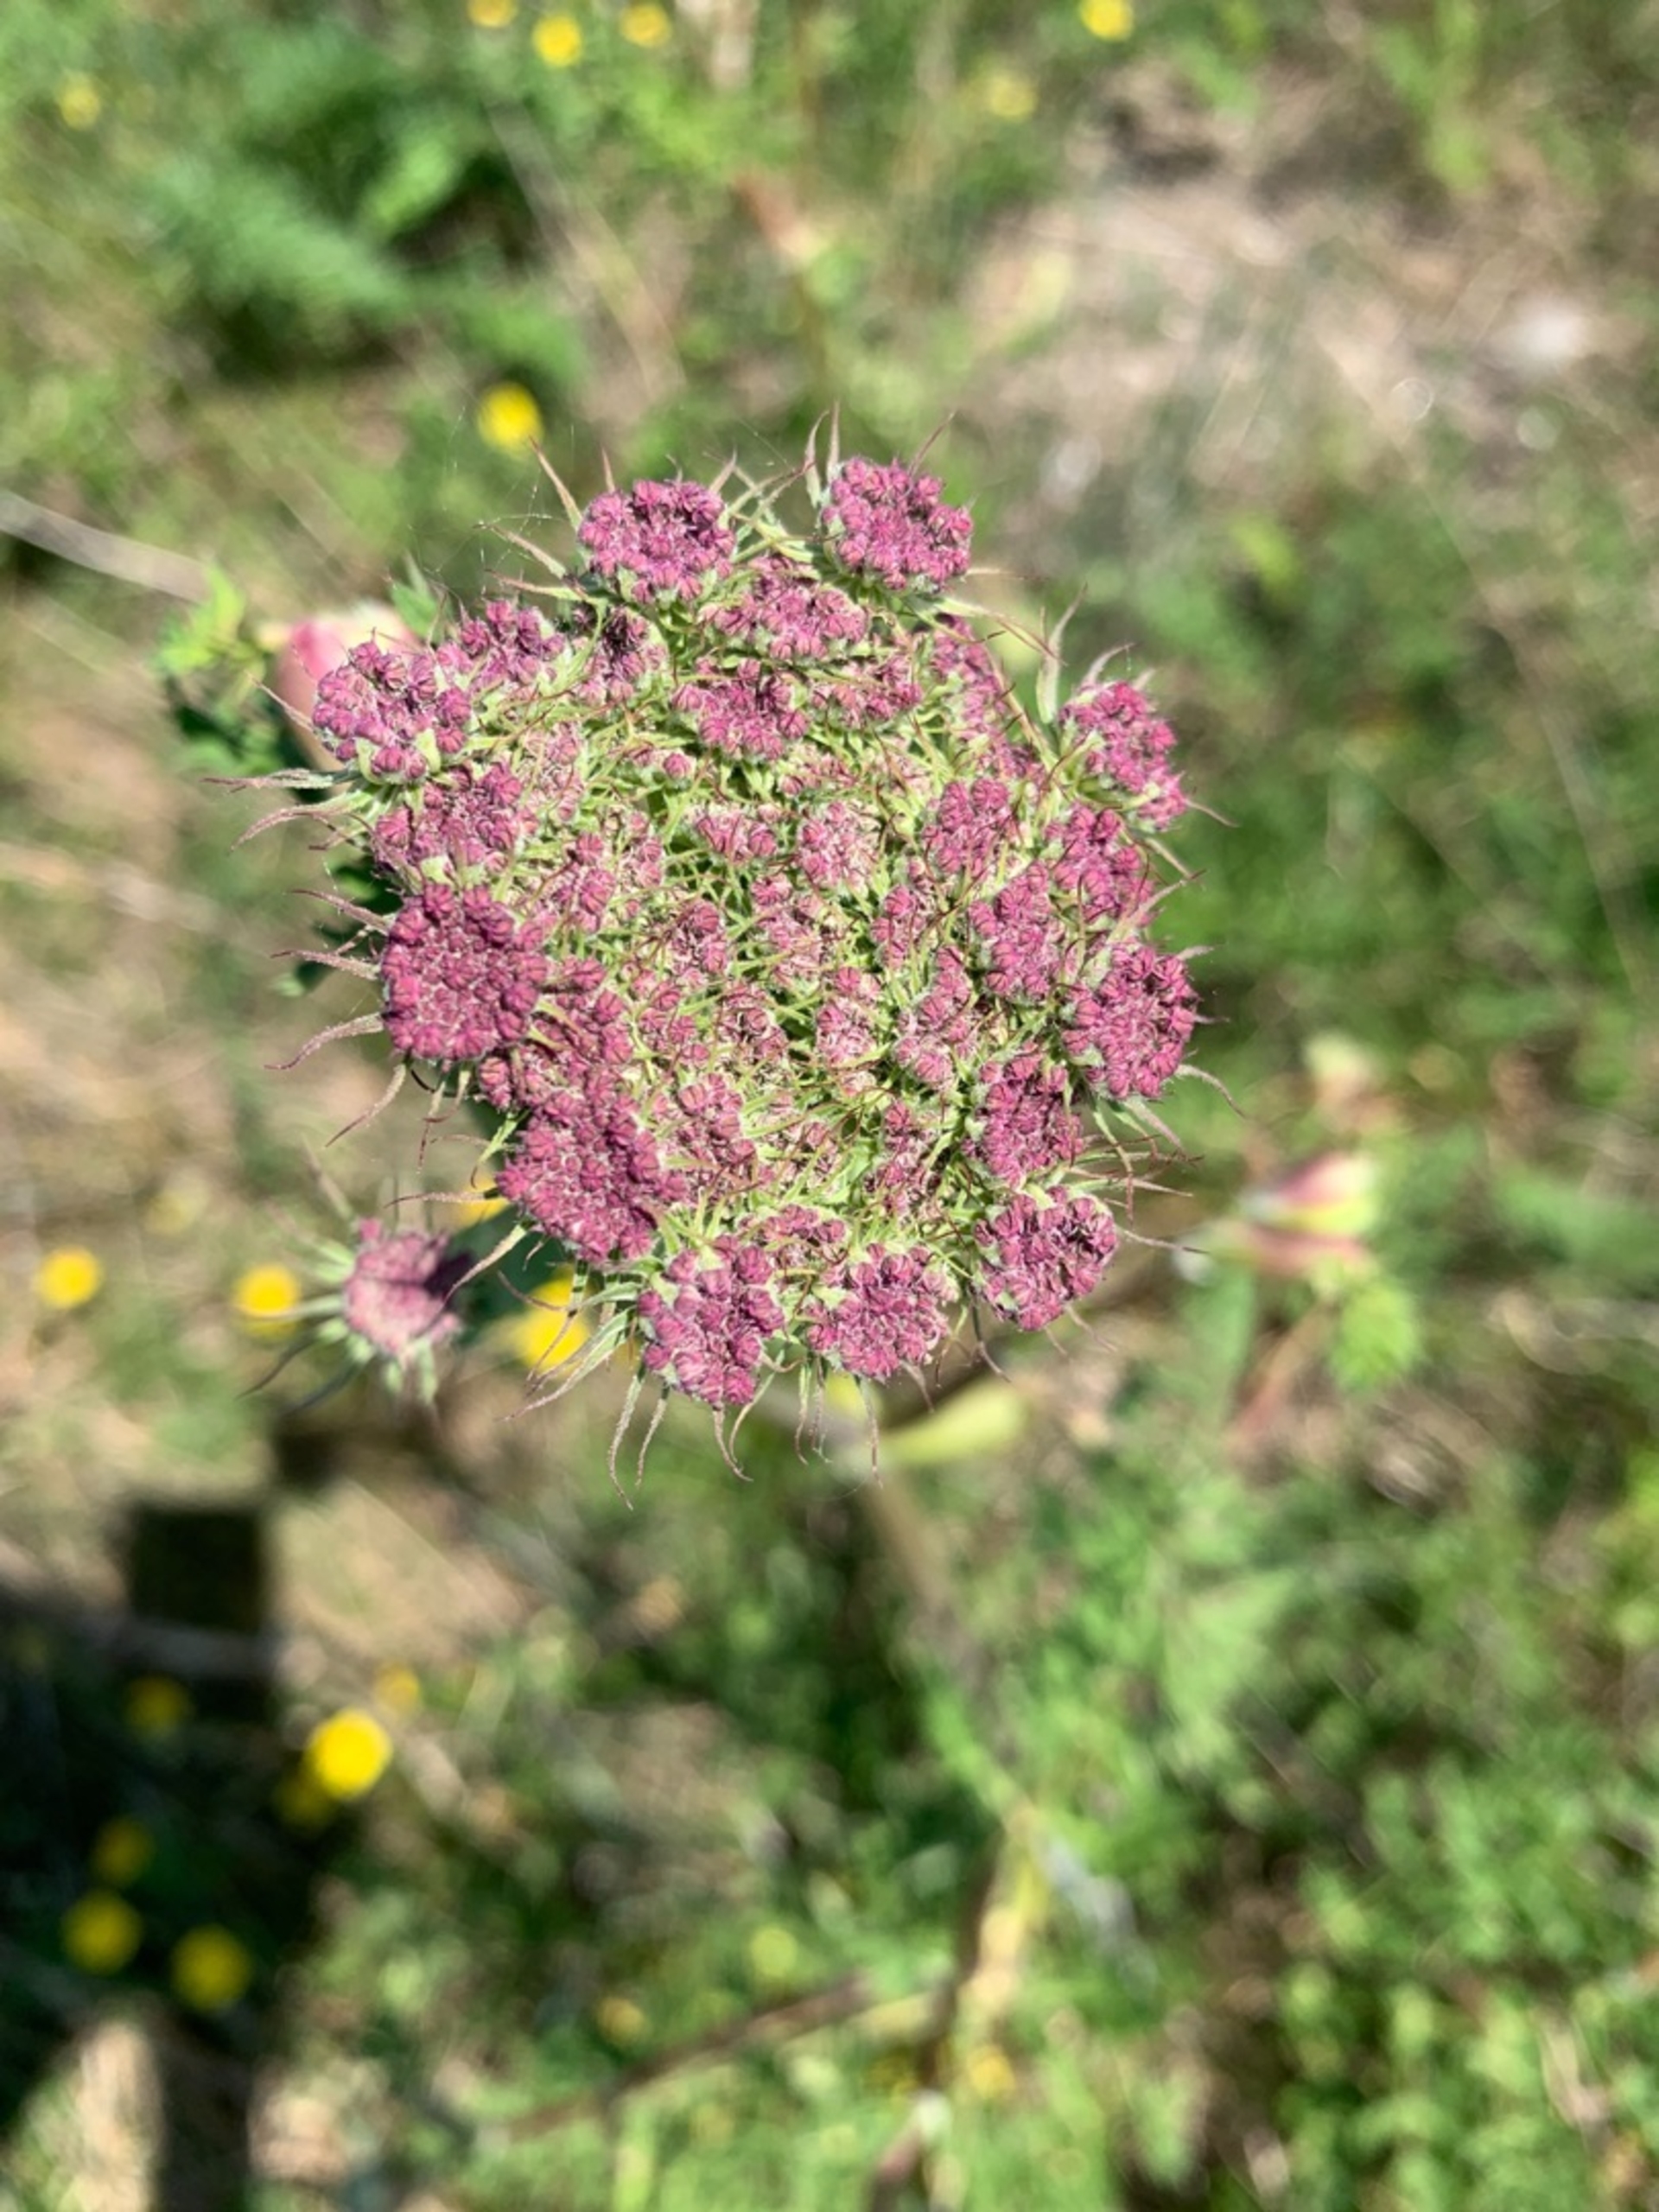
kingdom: Plantae
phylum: Tracheophyta
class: Magnoliopsida
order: Apiales
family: Apiaceae
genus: Seseli
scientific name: Seseli libanotis
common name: Hjorterod
